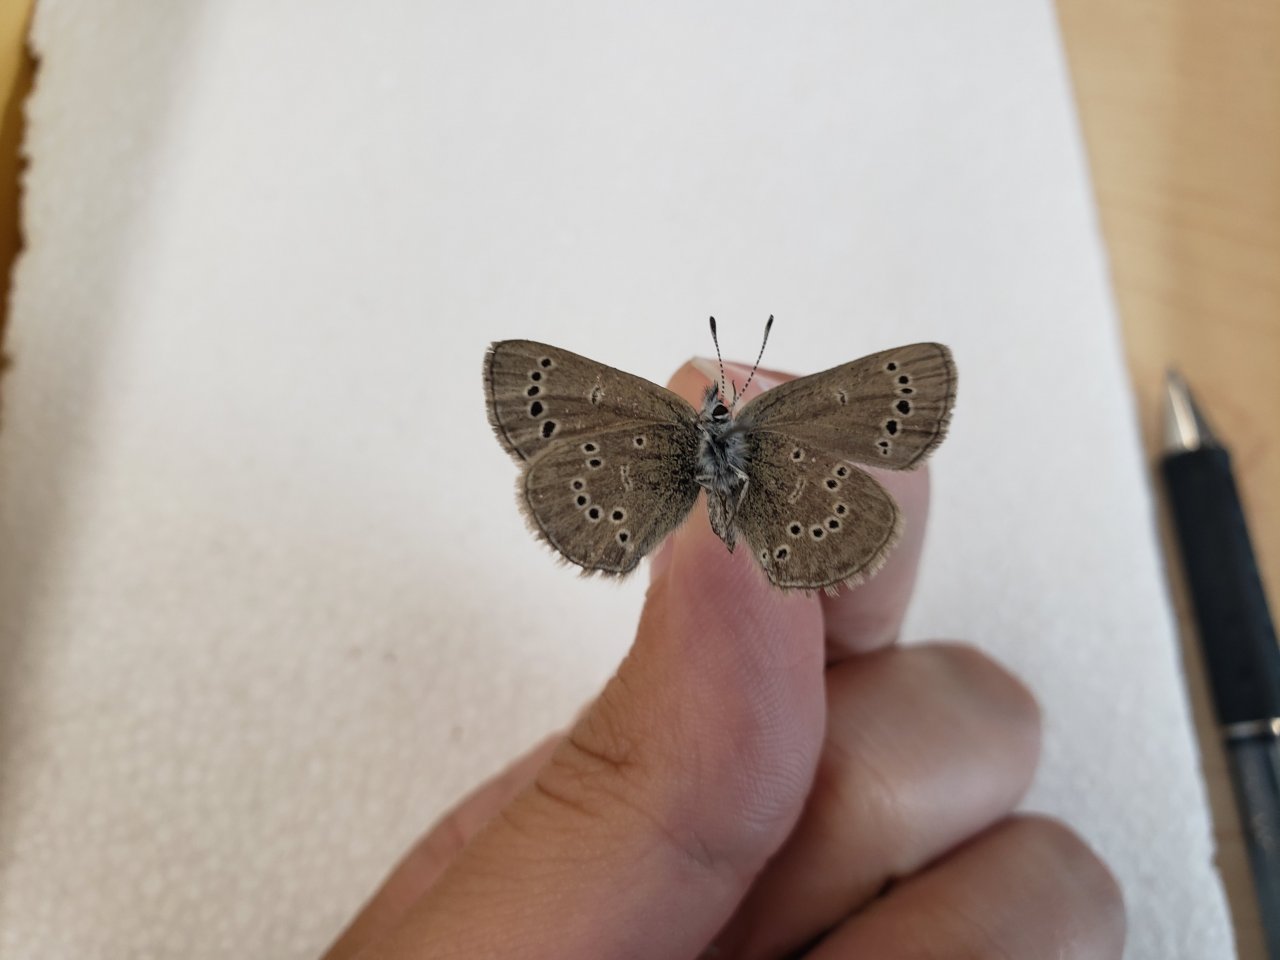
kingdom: Animalia
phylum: Arthropoda
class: Insecta
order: Lepidoptera
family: Lycaenidae
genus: Glaucopsyche
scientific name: Glaucopsyche lygdamus
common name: Silvery Blue
